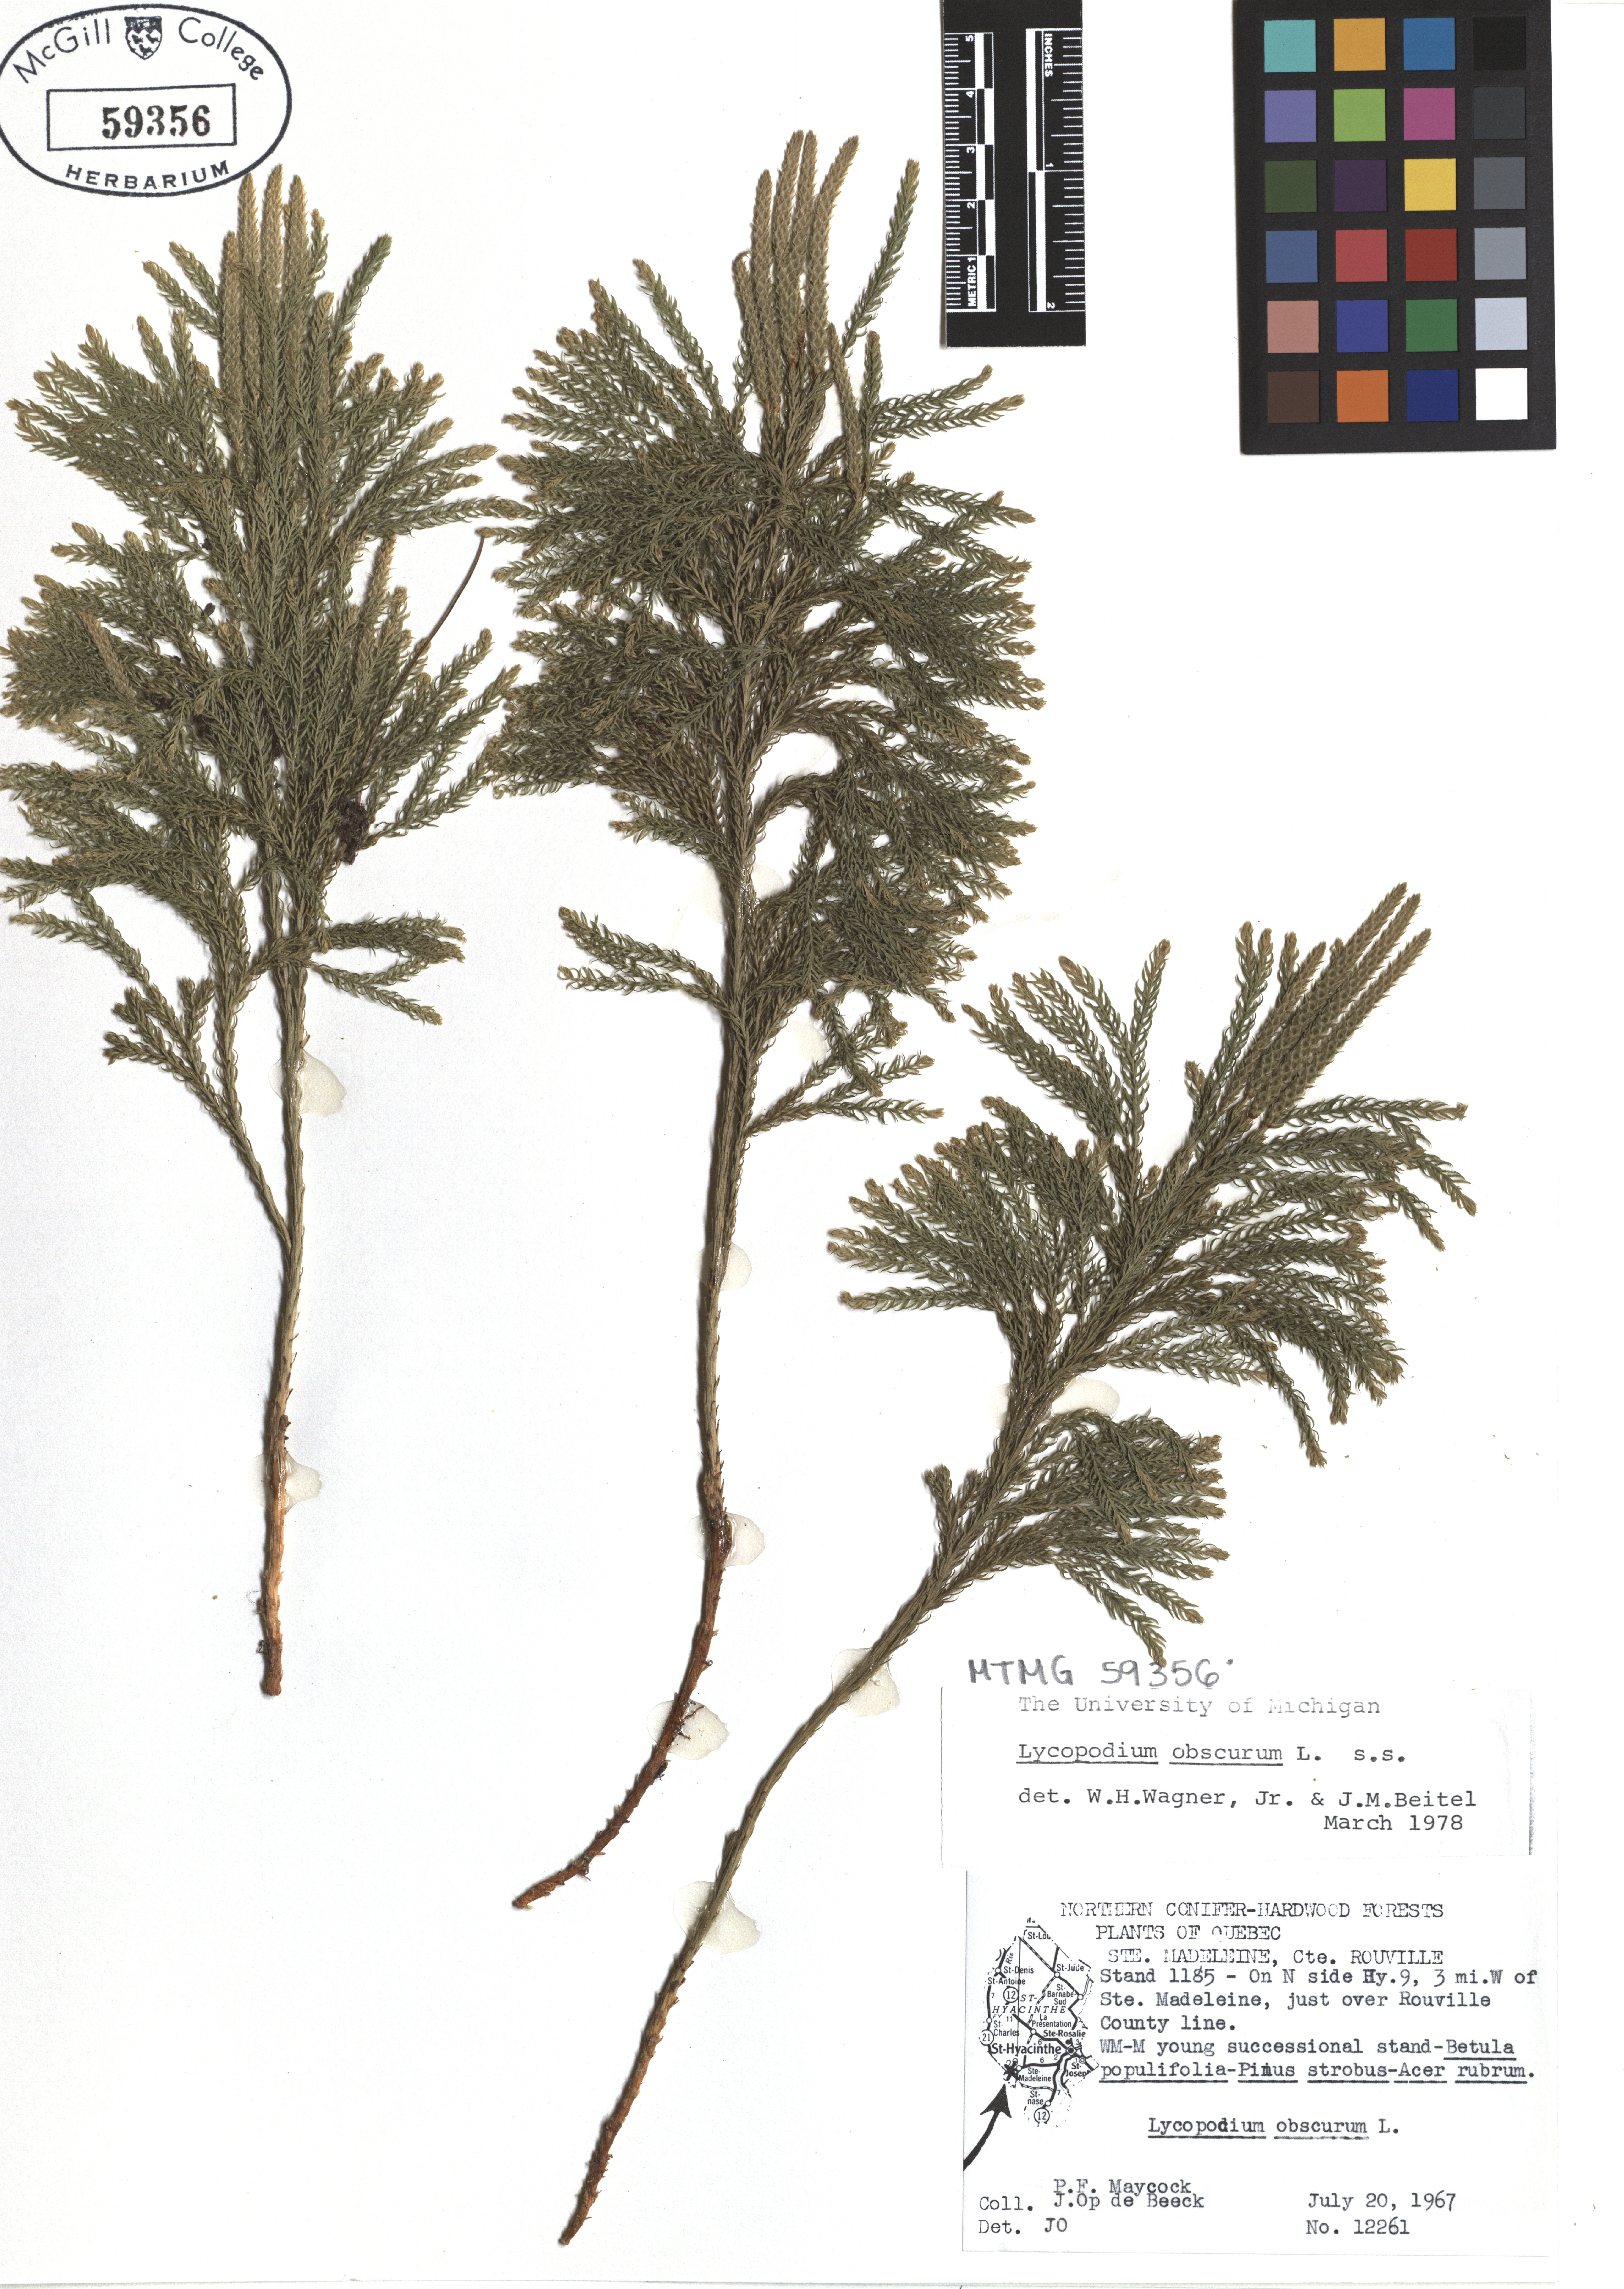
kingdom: Plantae
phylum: Tracheophyta
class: Lycopodiopsida
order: Lycopodiales
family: Lycopodiaceae
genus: Dendrolycopodium
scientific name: Dendrolycopodium obscurum
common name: Common ground-pine
